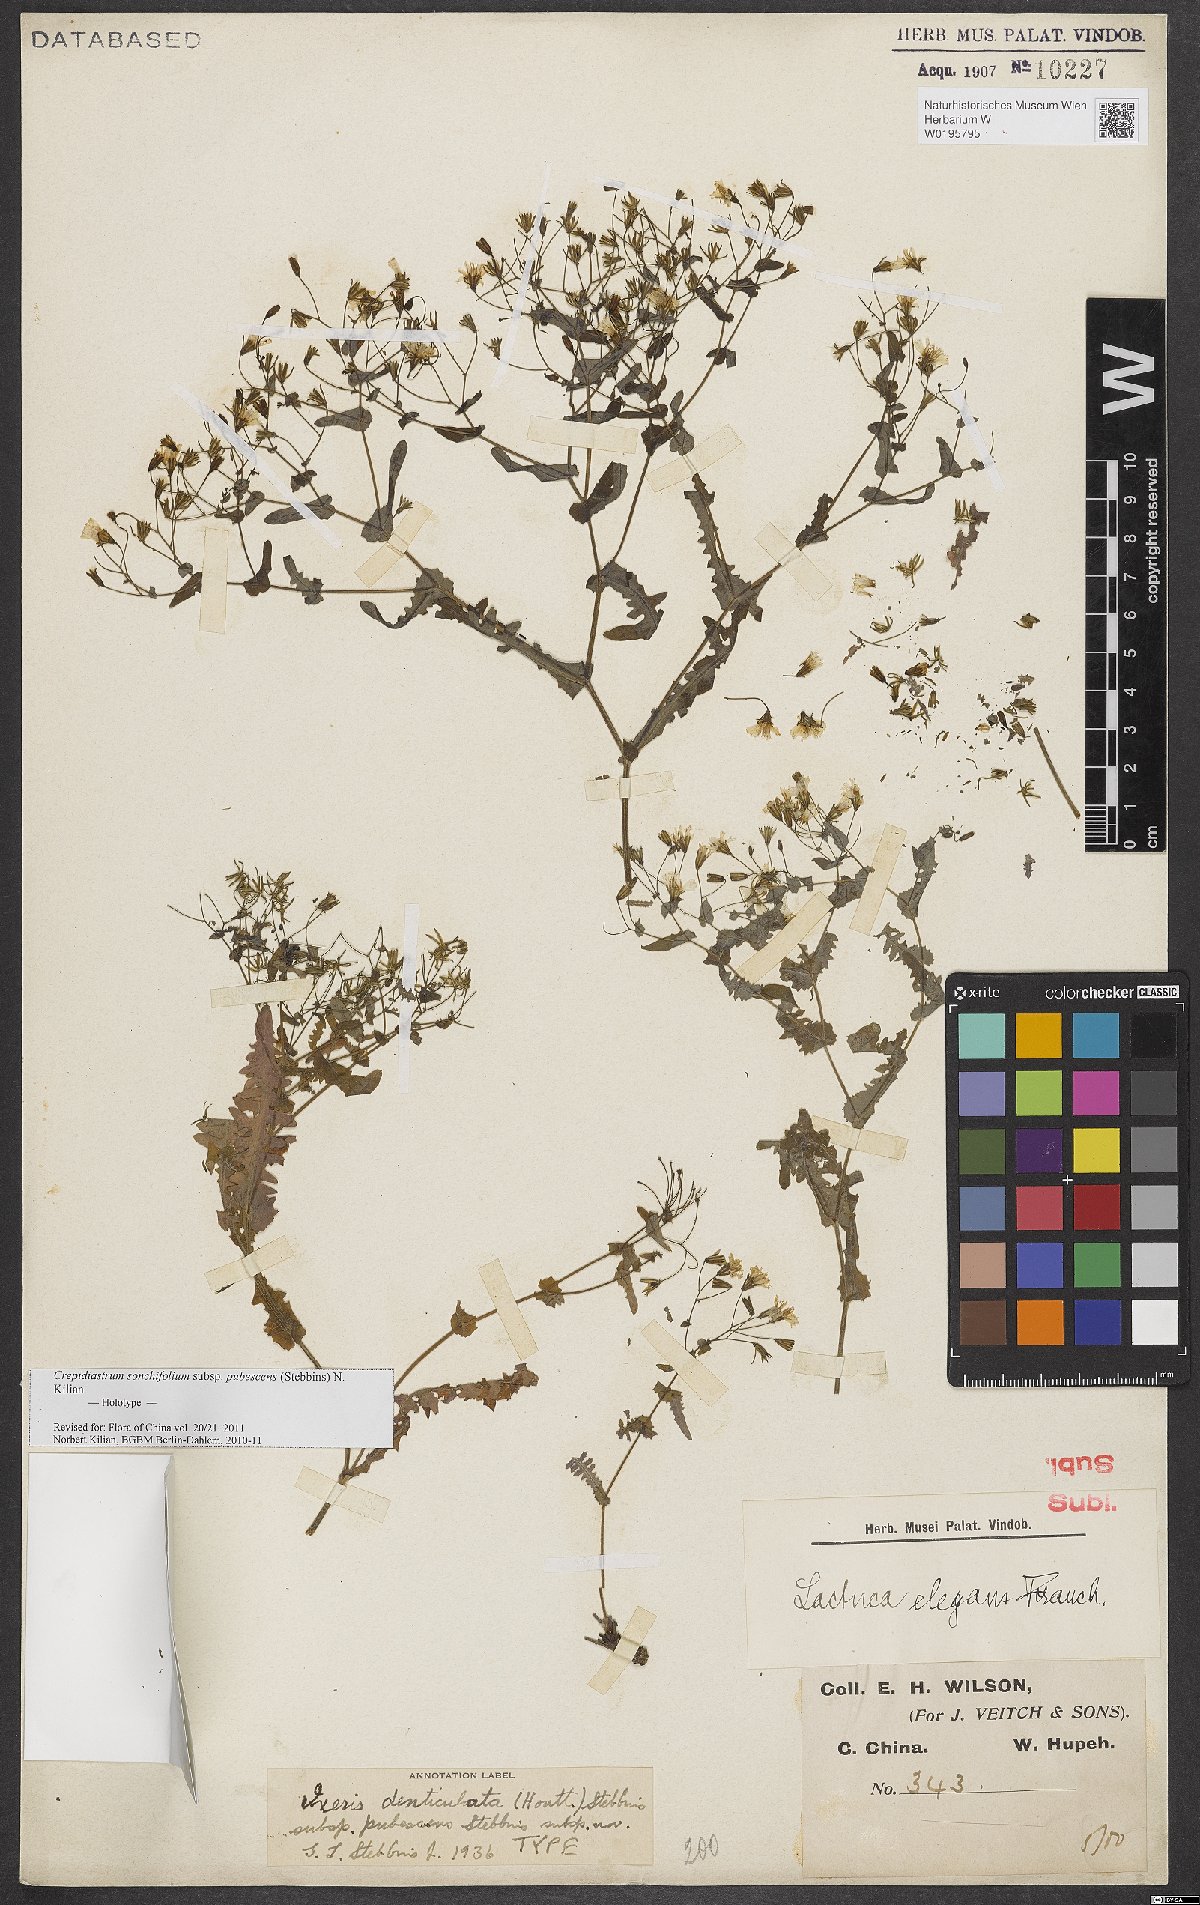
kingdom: Plantae
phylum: Tracheophyta
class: Magnoliopsida
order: Asterales
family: Asteraceae
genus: Crepidiastrum
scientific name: Crepidiastrum sonchifolium
